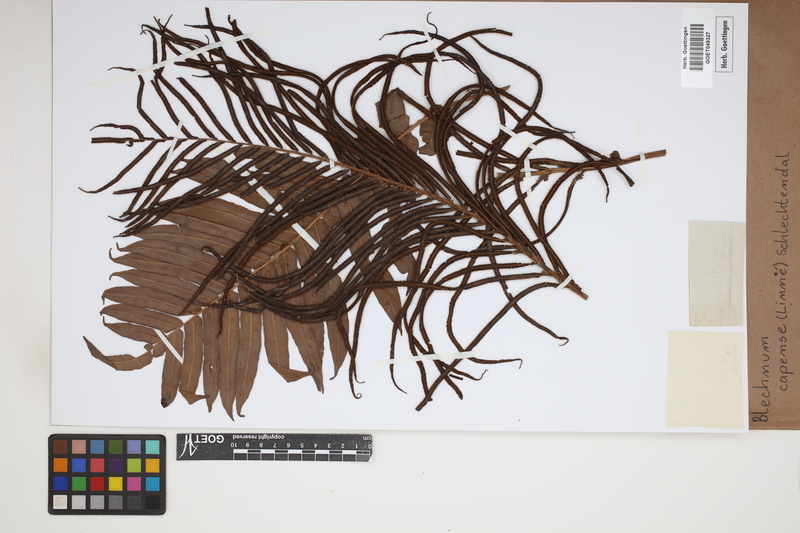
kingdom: Plantae
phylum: Tracheophyta
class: Polypodiopsida
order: Polypodiales
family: Blechnaceae
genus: Parablechnum
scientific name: Parablechnum capense
